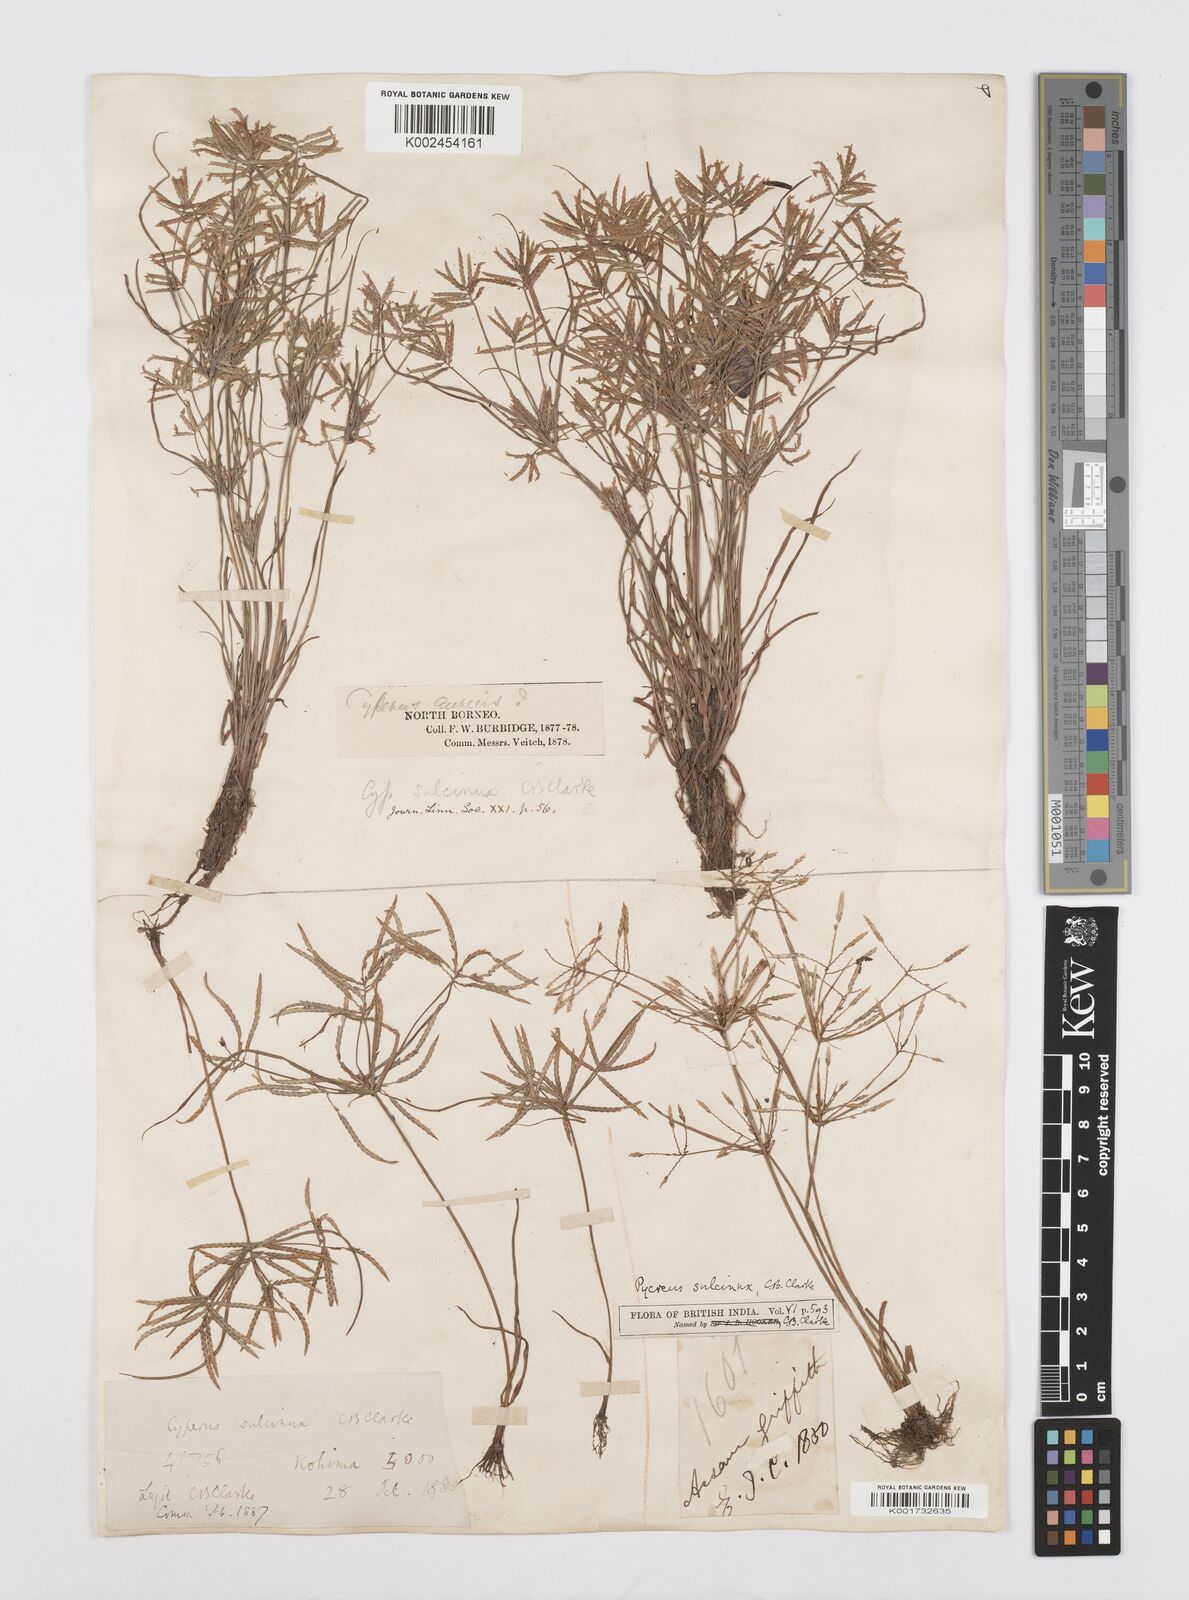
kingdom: Plantae
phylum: Tracheophyta
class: Liliopsida
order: Poales
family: Cyperaceae
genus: Cyperus
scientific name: Cyperus sulcinux
